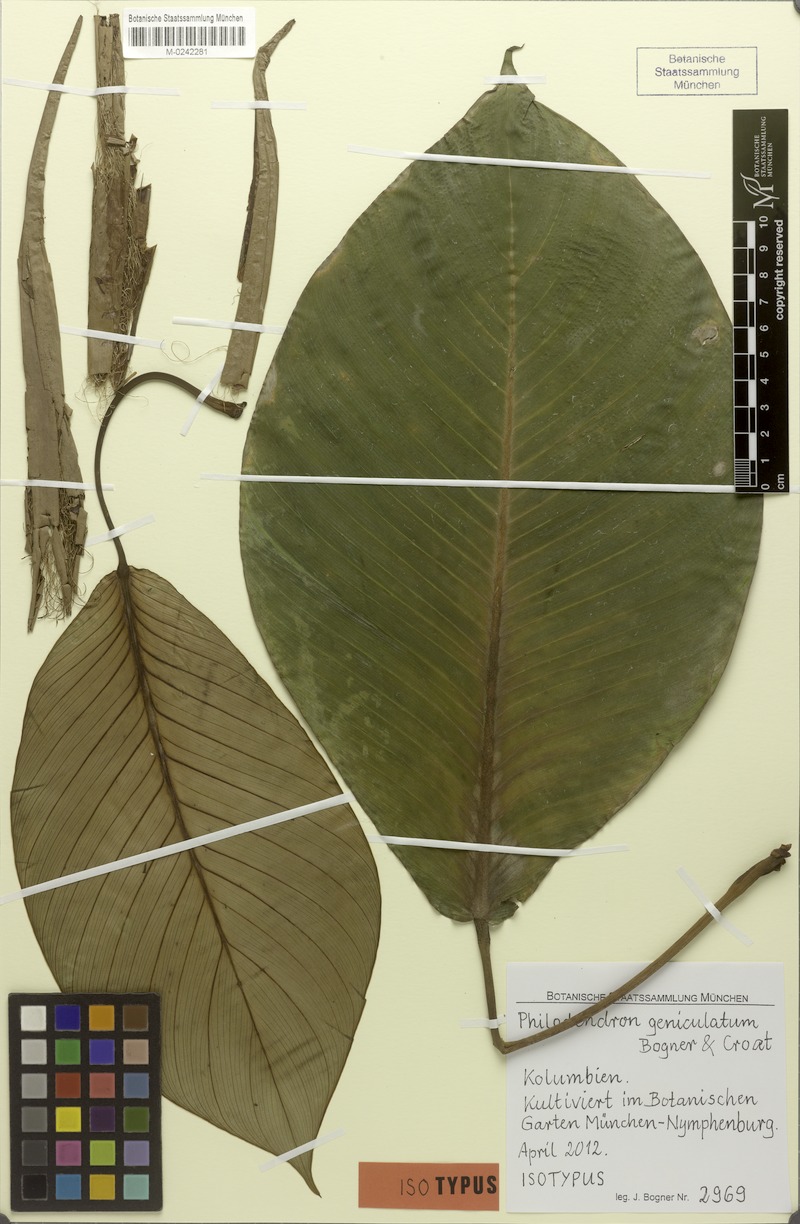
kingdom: Plantae
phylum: Tracheophyta
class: Liliopsida
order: Alismatales
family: Araceae
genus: Philodendron
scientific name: Philodendron geniculatum
